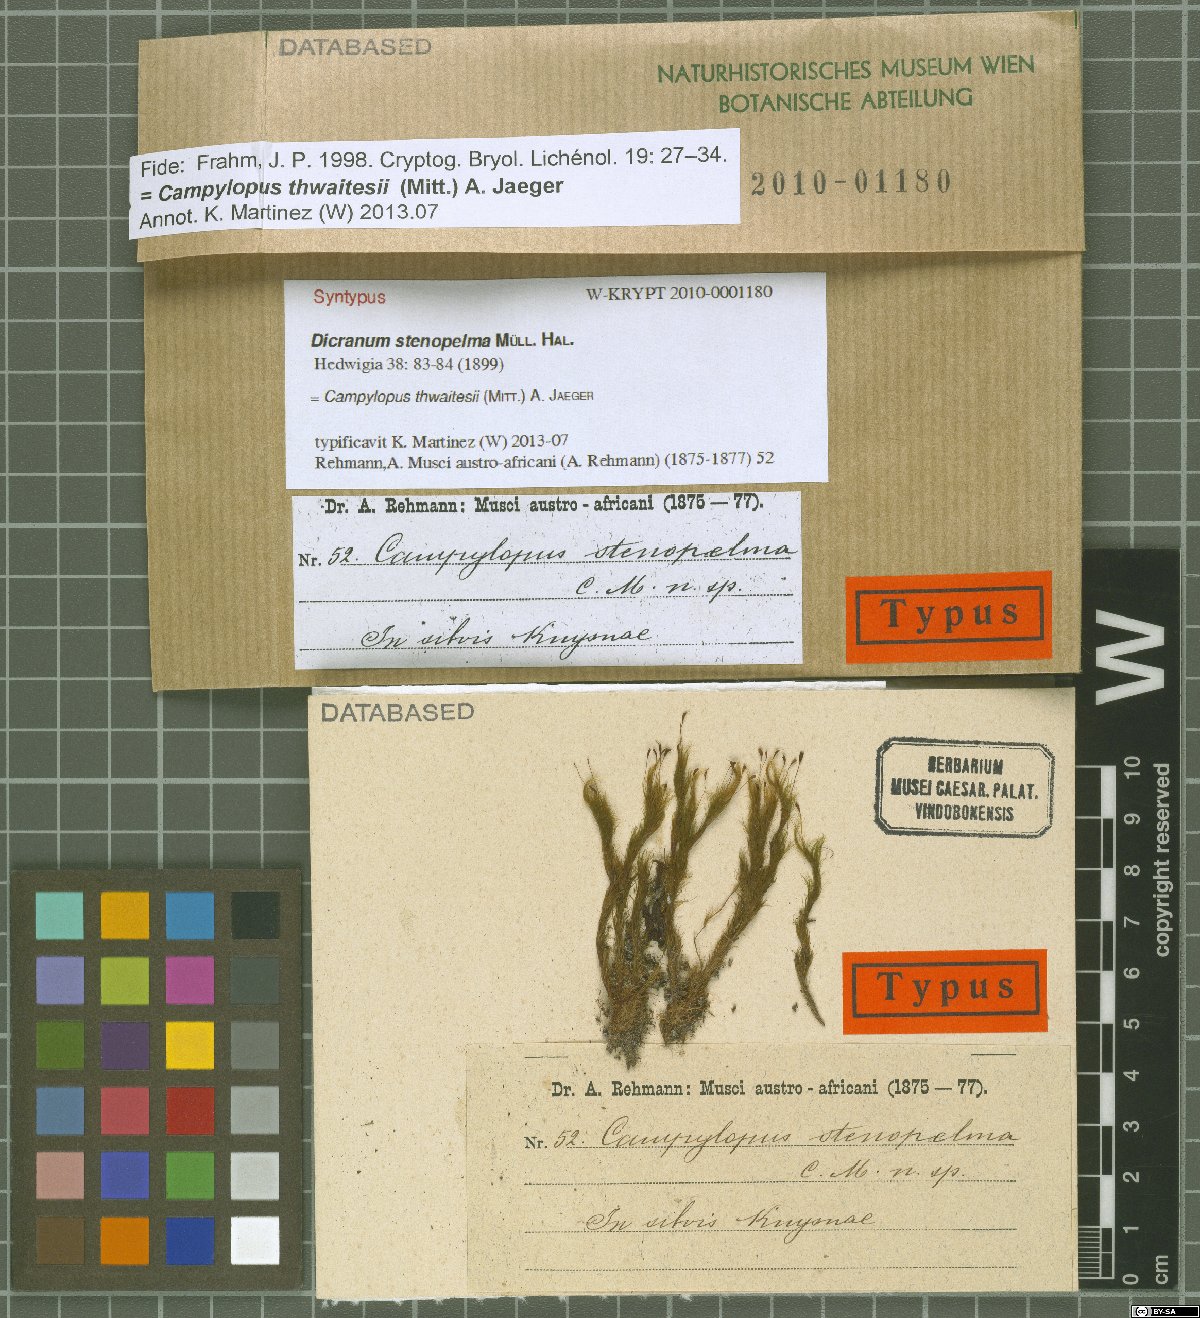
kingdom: Plantae
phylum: Bryophyta
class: Bryopsida
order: Dicranales
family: Leucobryaceae
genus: Campylopus
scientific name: Campylopus thwaitesii
